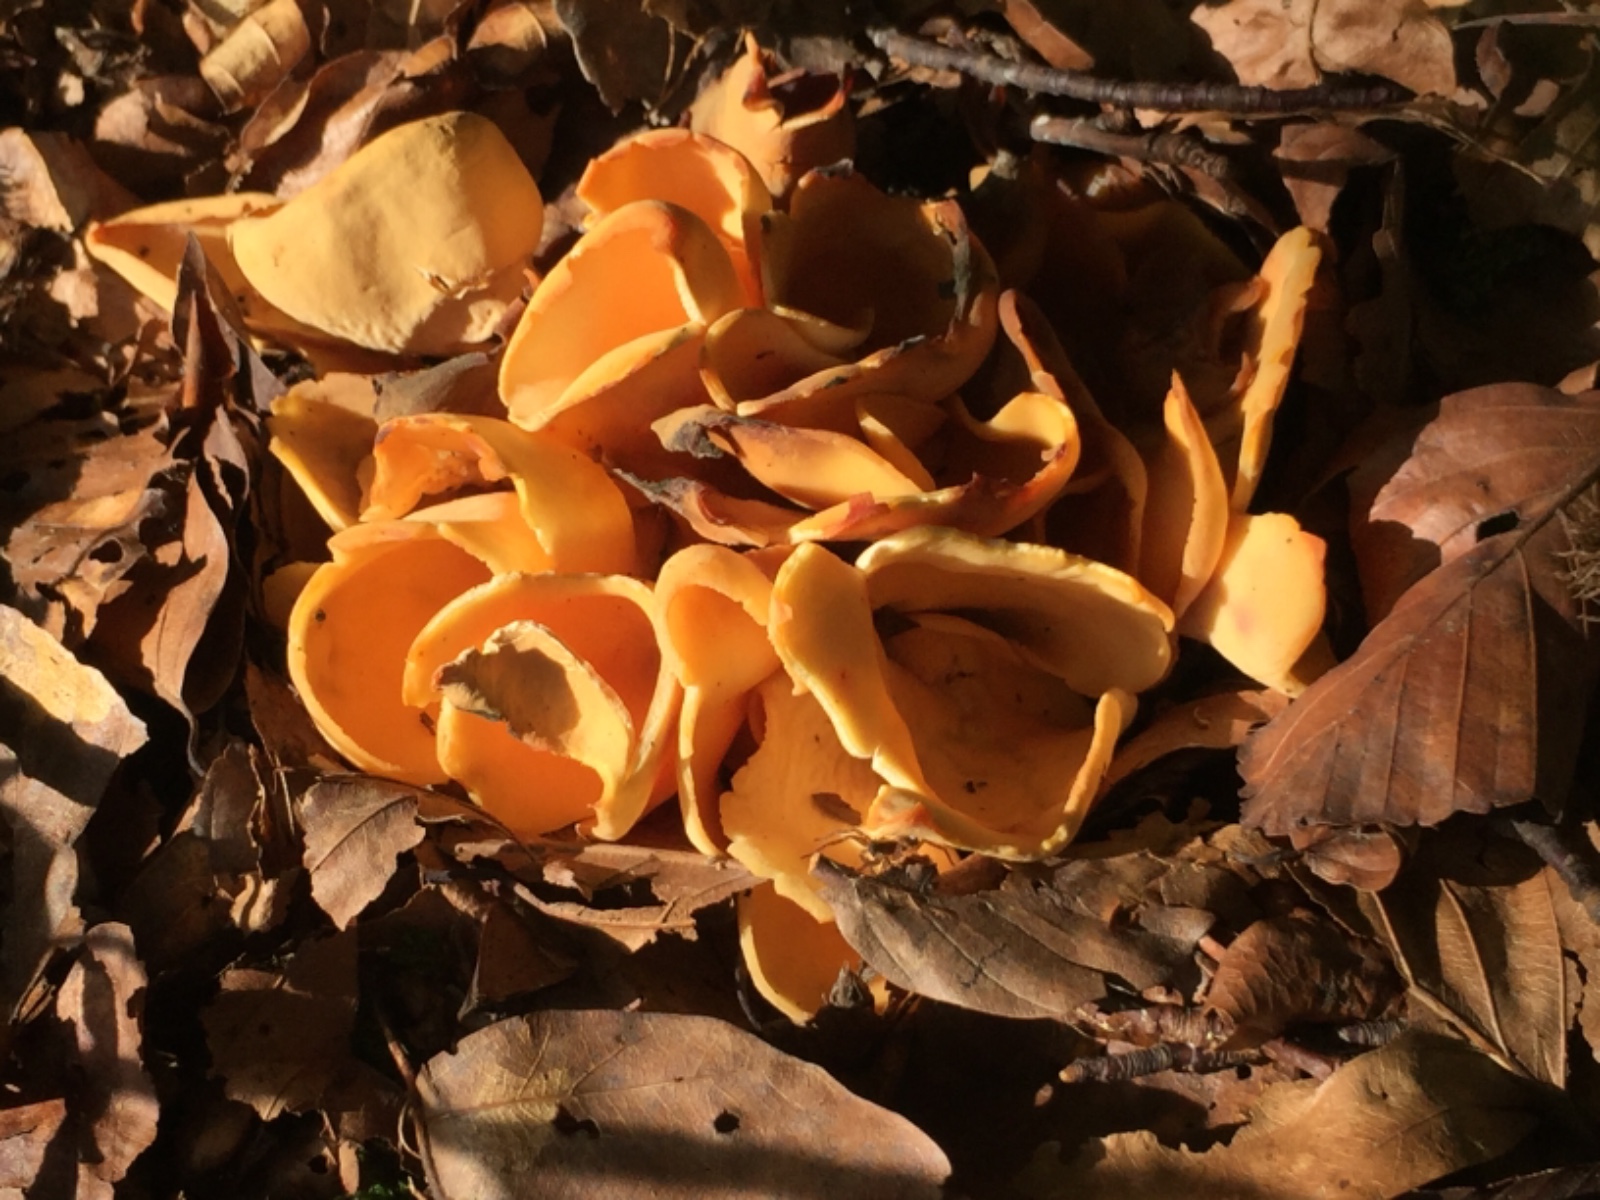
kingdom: Fungi
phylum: Ascomycota
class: Pezizomycetes
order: Pezizales
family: Otideaceae
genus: Otidea
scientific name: Otidea onotica
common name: æsel-ørebæger
